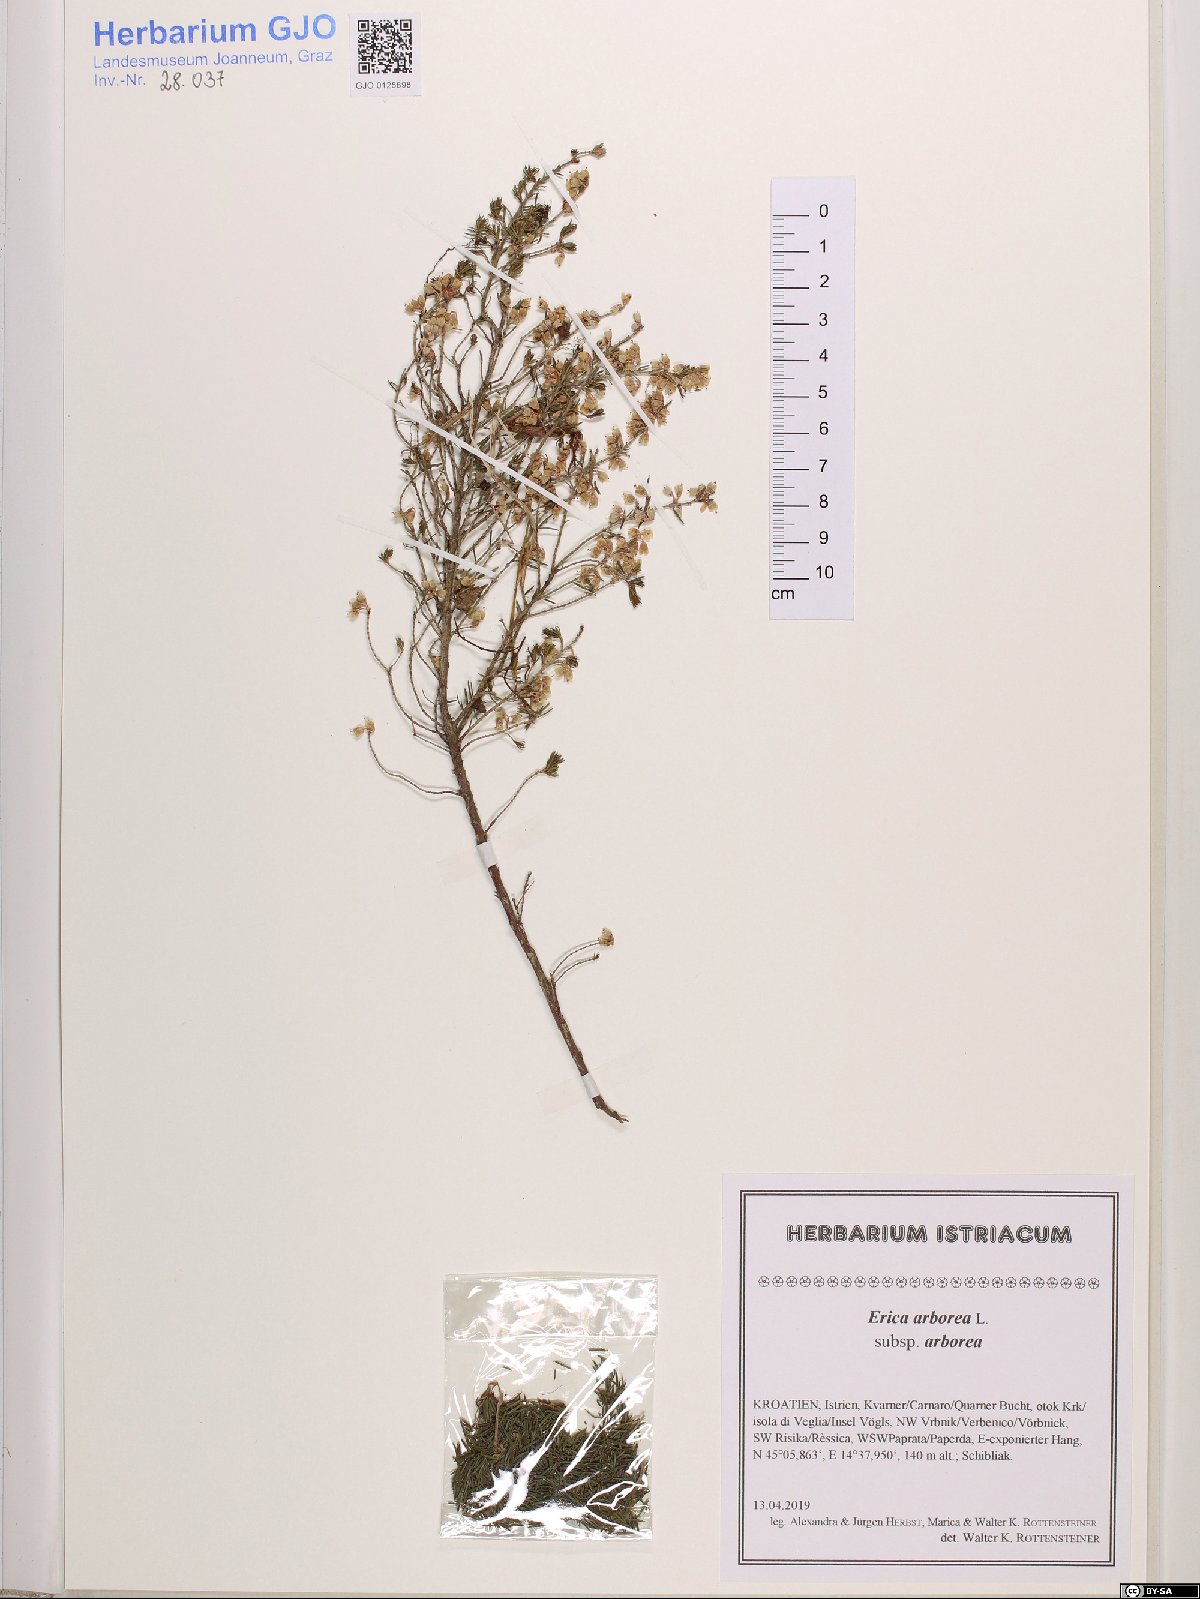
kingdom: Plantae
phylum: Tracheophyta
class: Magnoliopsida
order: Ericales
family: Ericaceae
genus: Erica
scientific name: Erica arborea
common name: Tree heath
